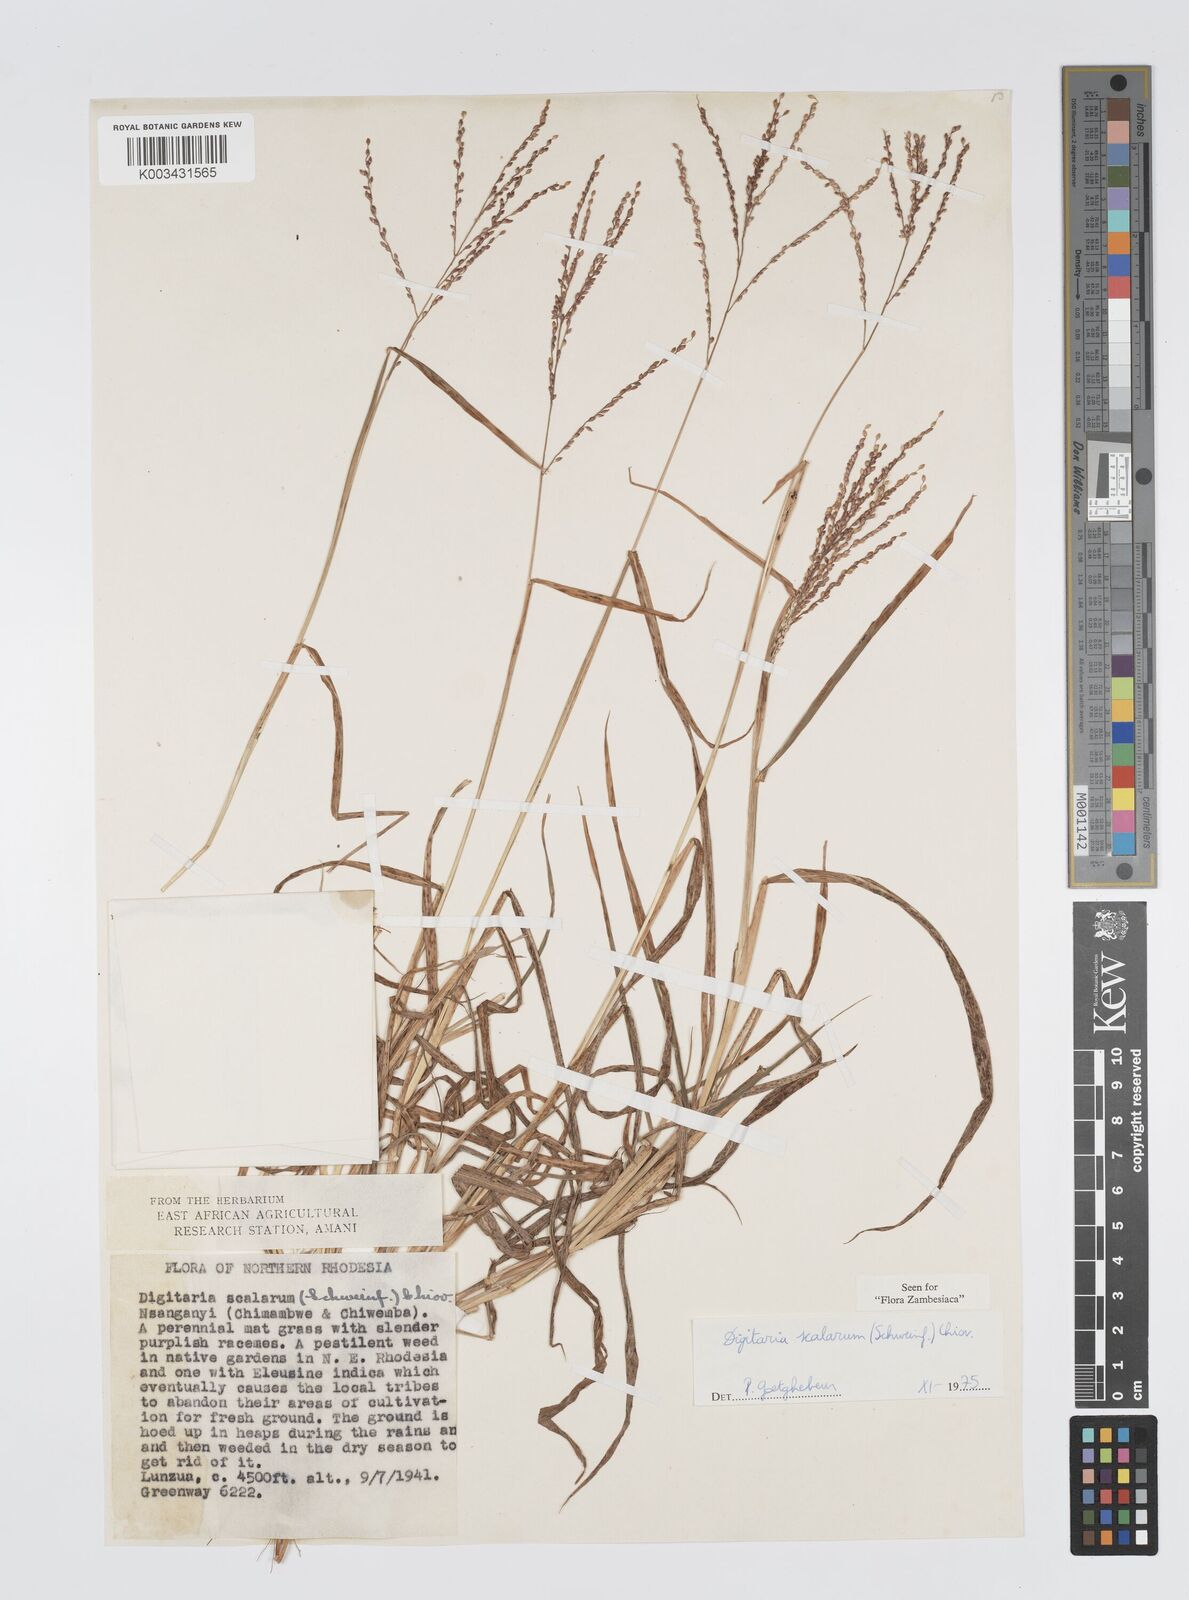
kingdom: Plantae
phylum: Tracheophyta
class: Liliopsida
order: Poales
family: Poaceae
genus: Digitaria
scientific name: Digitaria abyssinica
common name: African couchgrass
